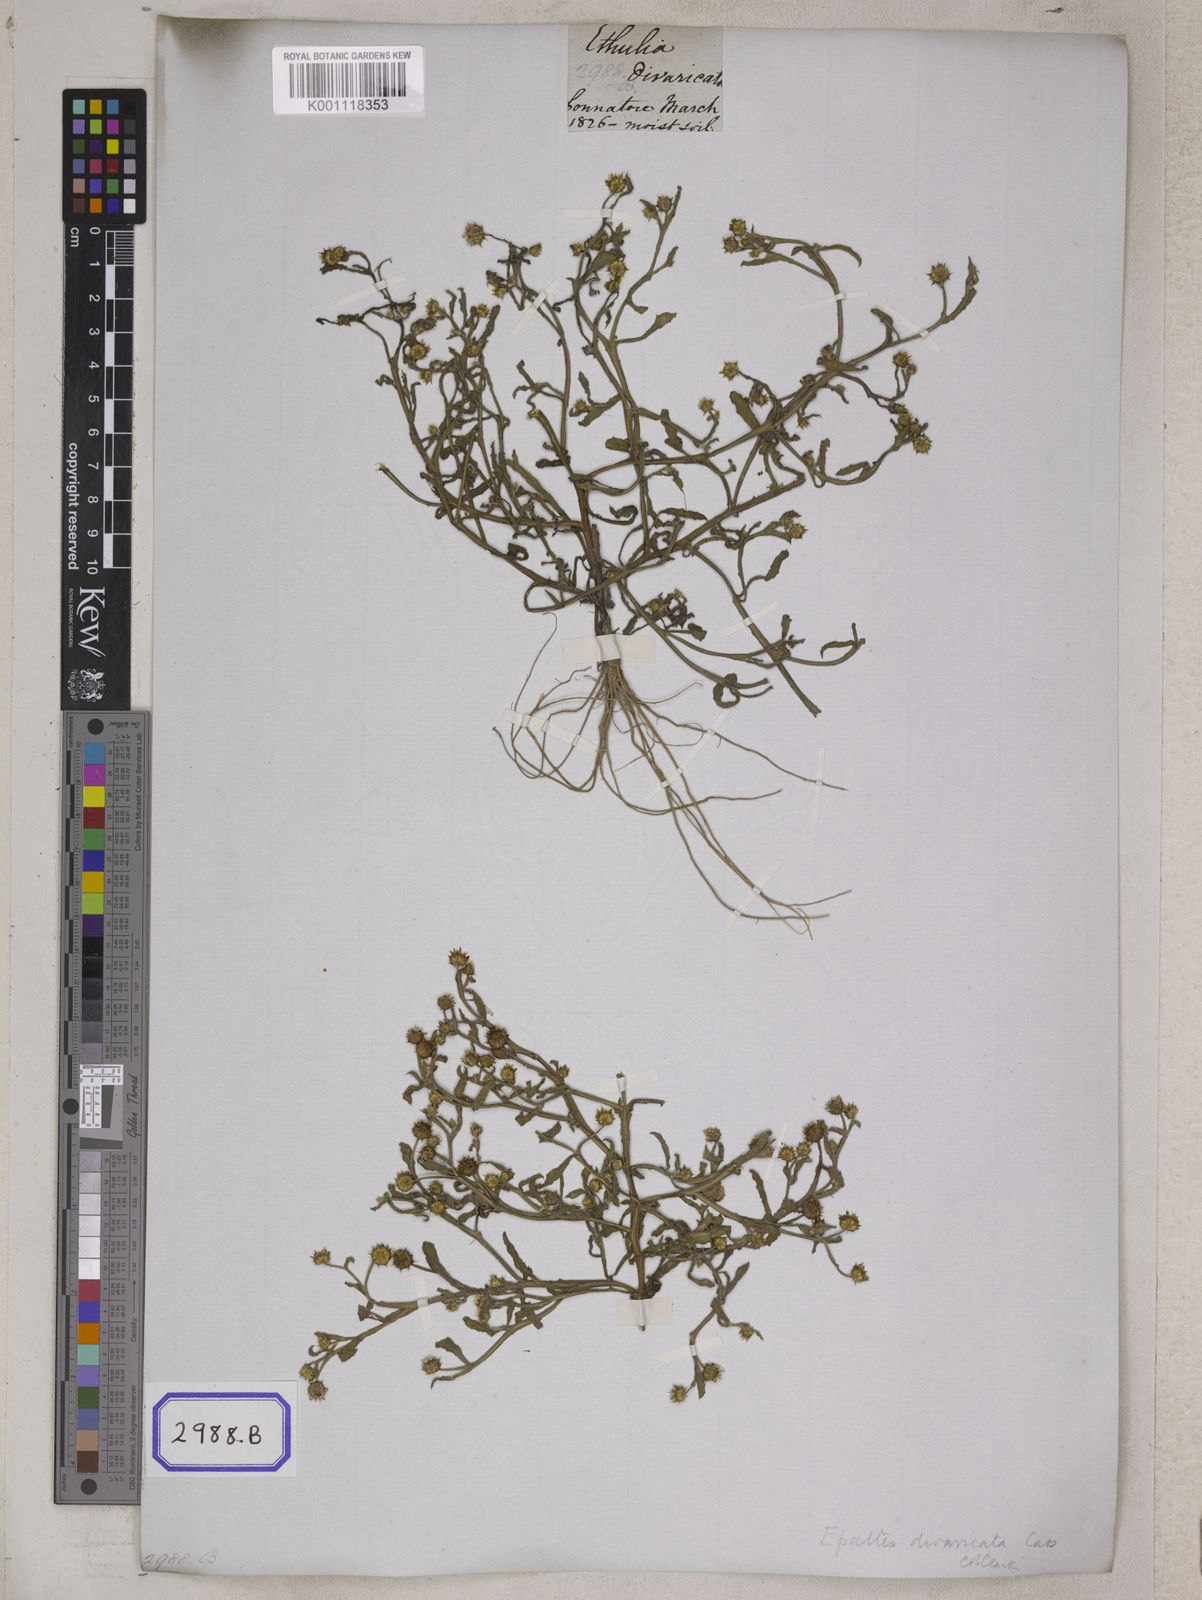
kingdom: Plantae
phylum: Tracheophyta
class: Magnoliopsida
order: Asterales
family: Asteraceae
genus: Brachyscome
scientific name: Brachyscome assamica
